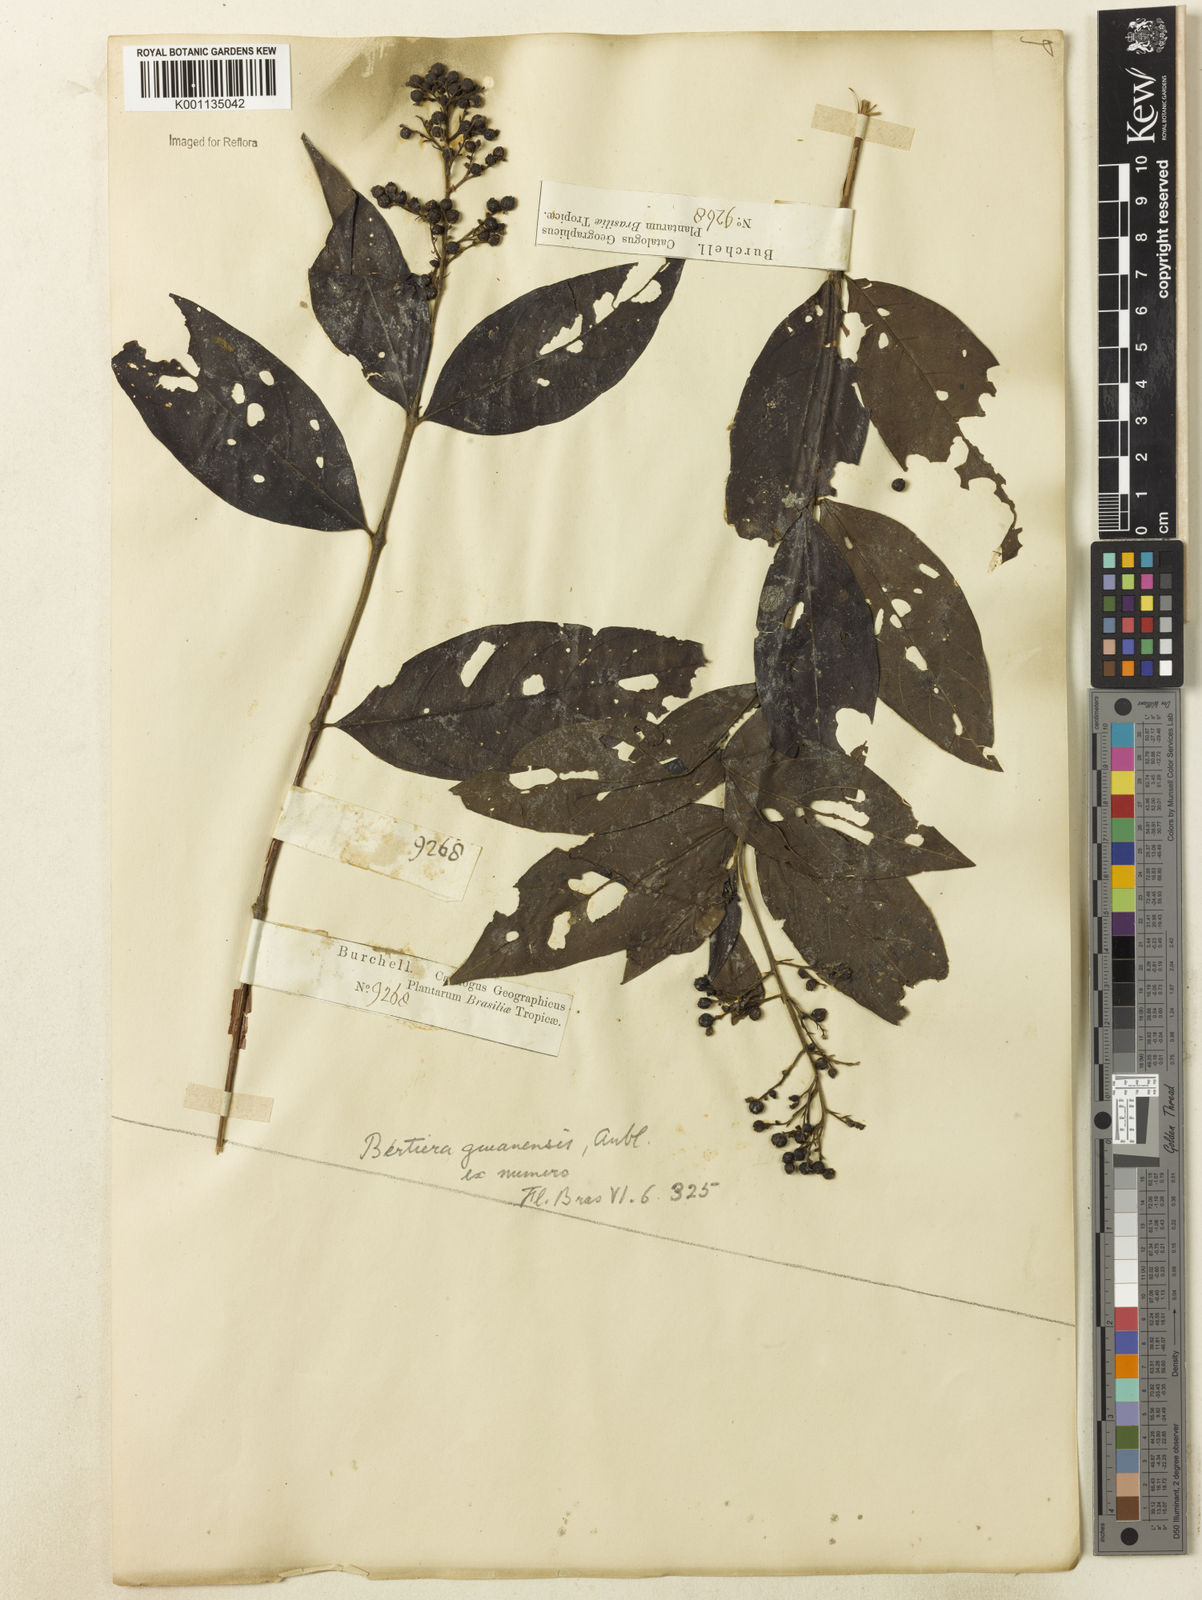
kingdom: Plantae
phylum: Tracheophyta
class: Magnoliopsida
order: Gentianales
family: Rubiaceae
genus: Bertiera
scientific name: Bertiera guianensis
